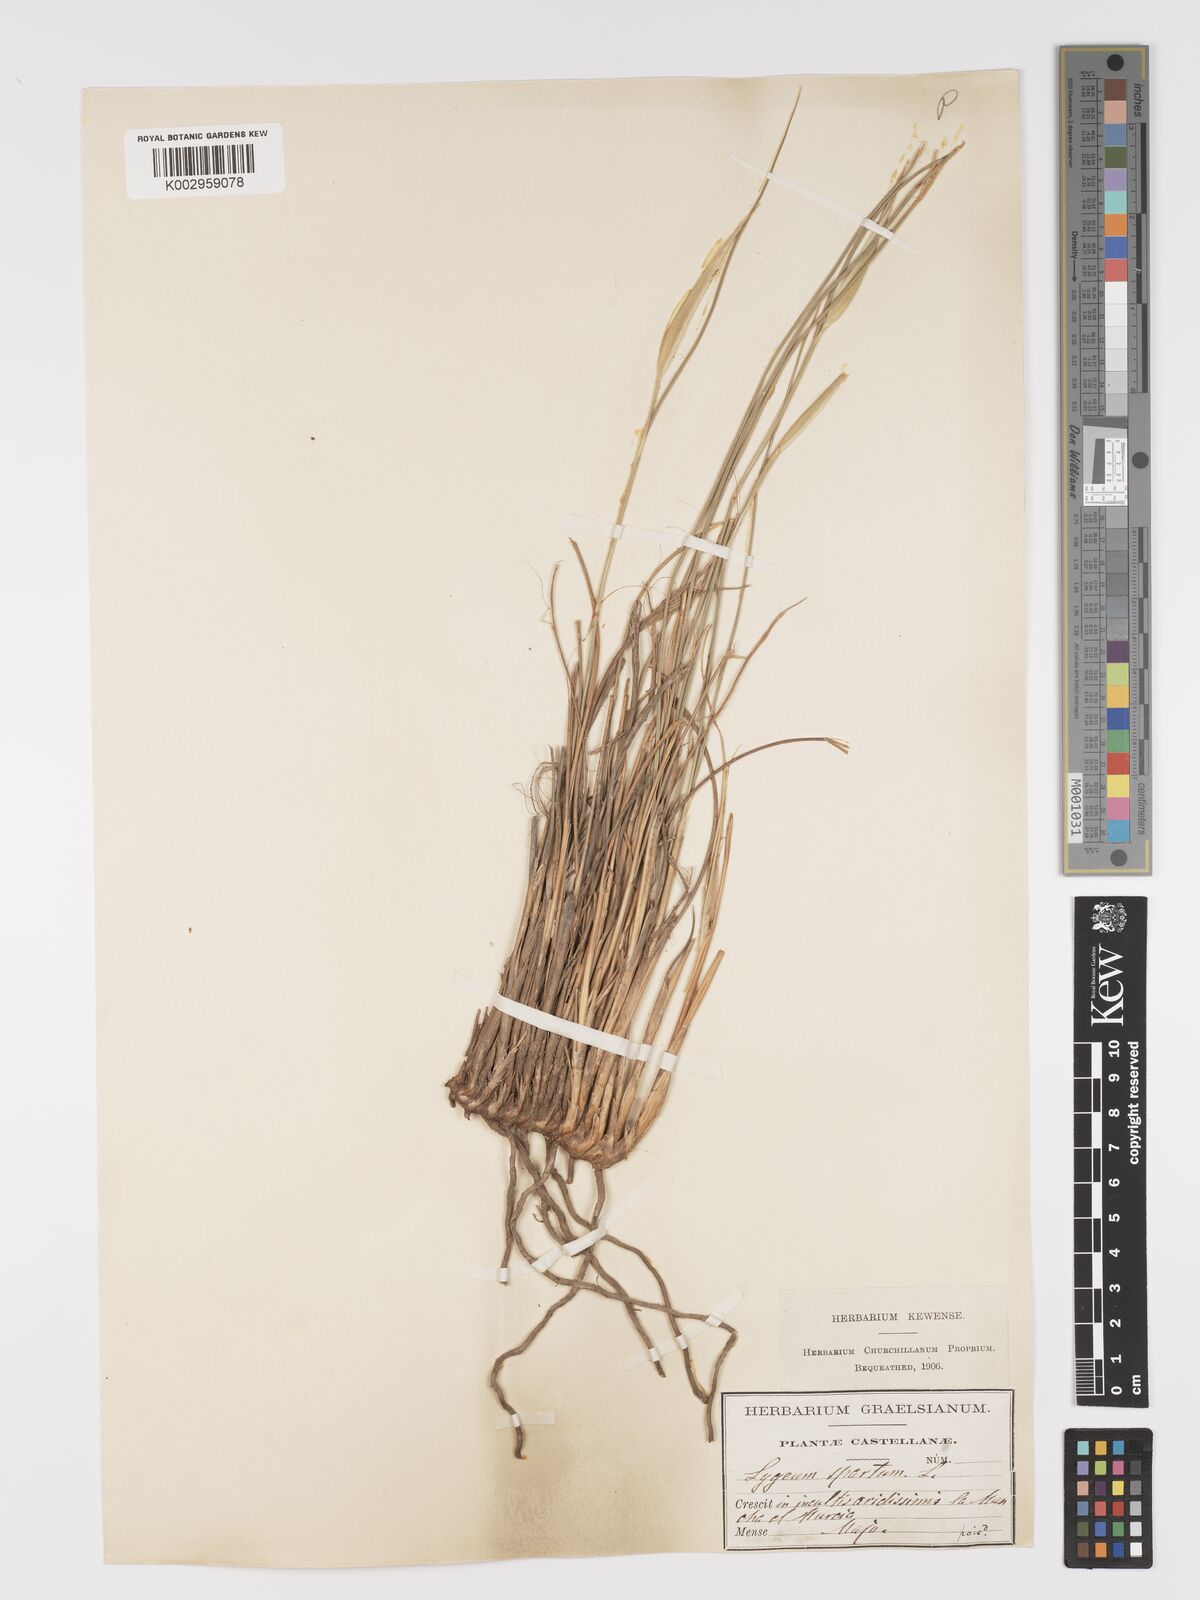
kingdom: Plantae
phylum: Tracheophyta
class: Liliopsida
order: Poales
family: Poaceae
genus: Lygeum
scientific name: Lygeum spartum
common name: Albardine
